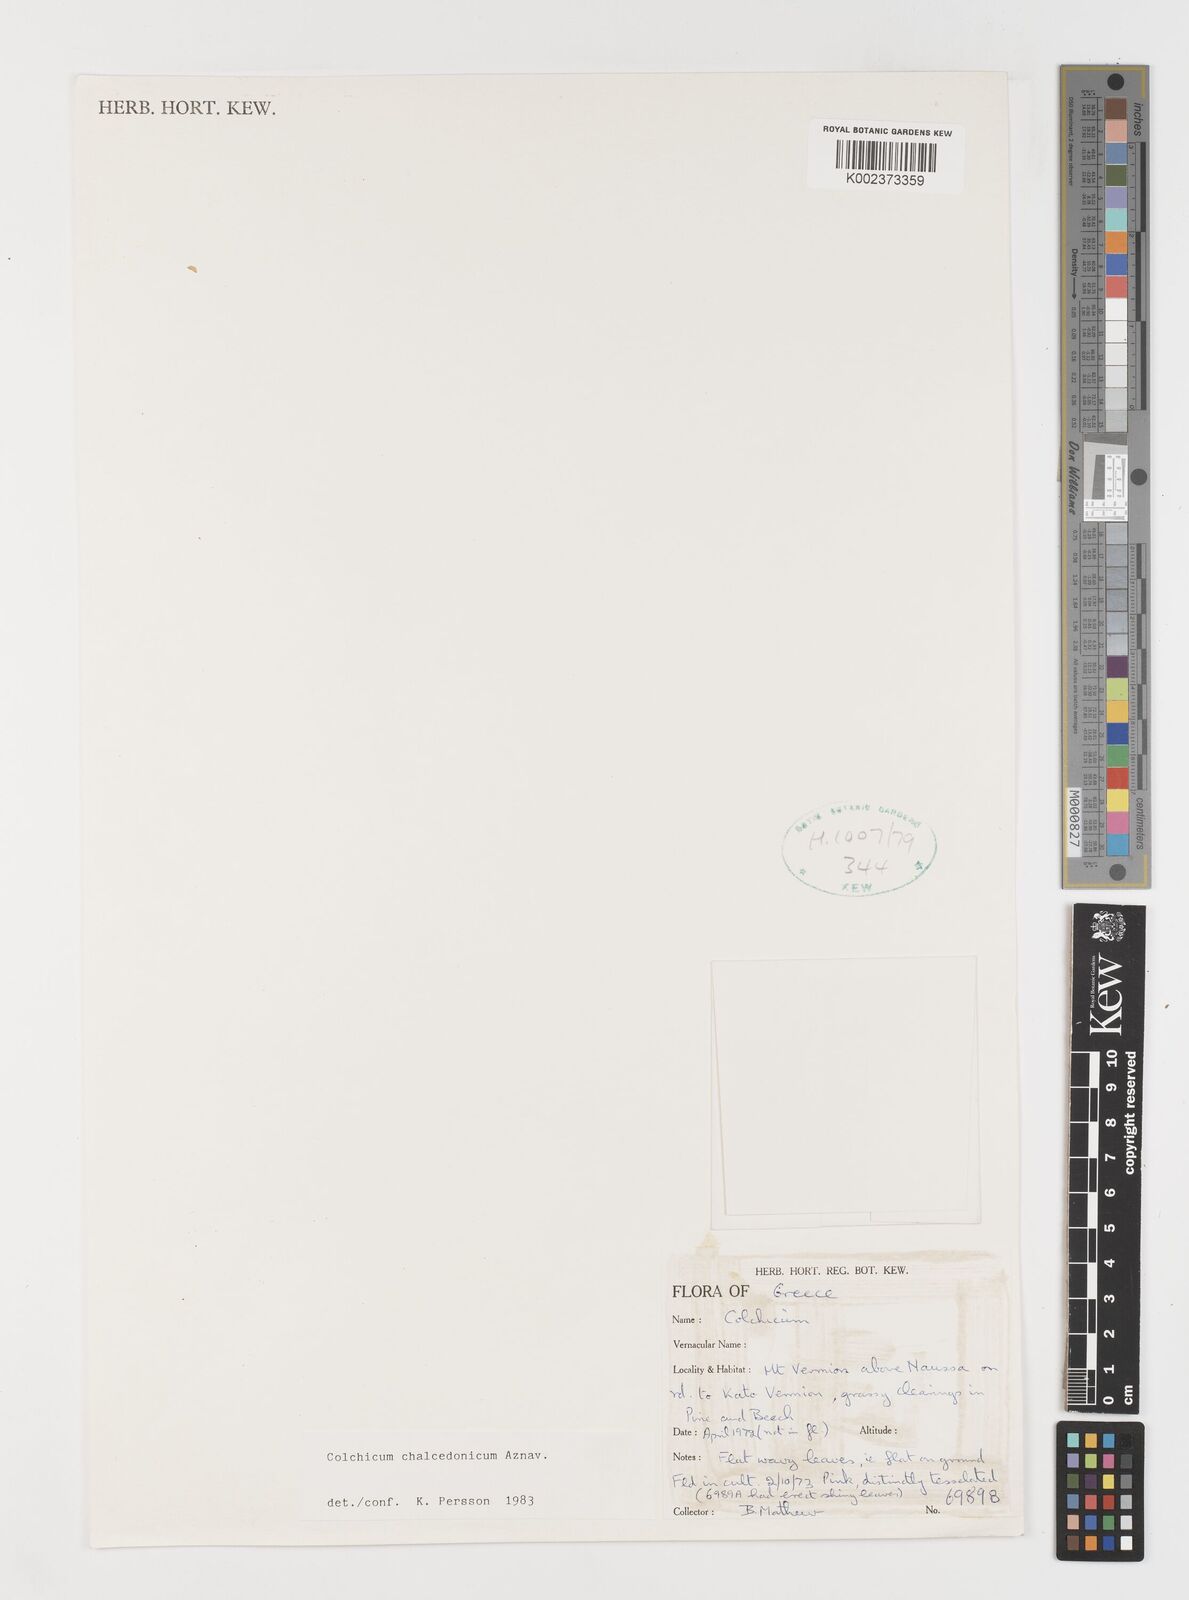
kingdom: Plantae
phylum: Tracheophyta
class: Liliopsida
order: Liliales
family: Colchicaceae
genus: Colchicum
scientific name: Colchicum chalcedonicum
